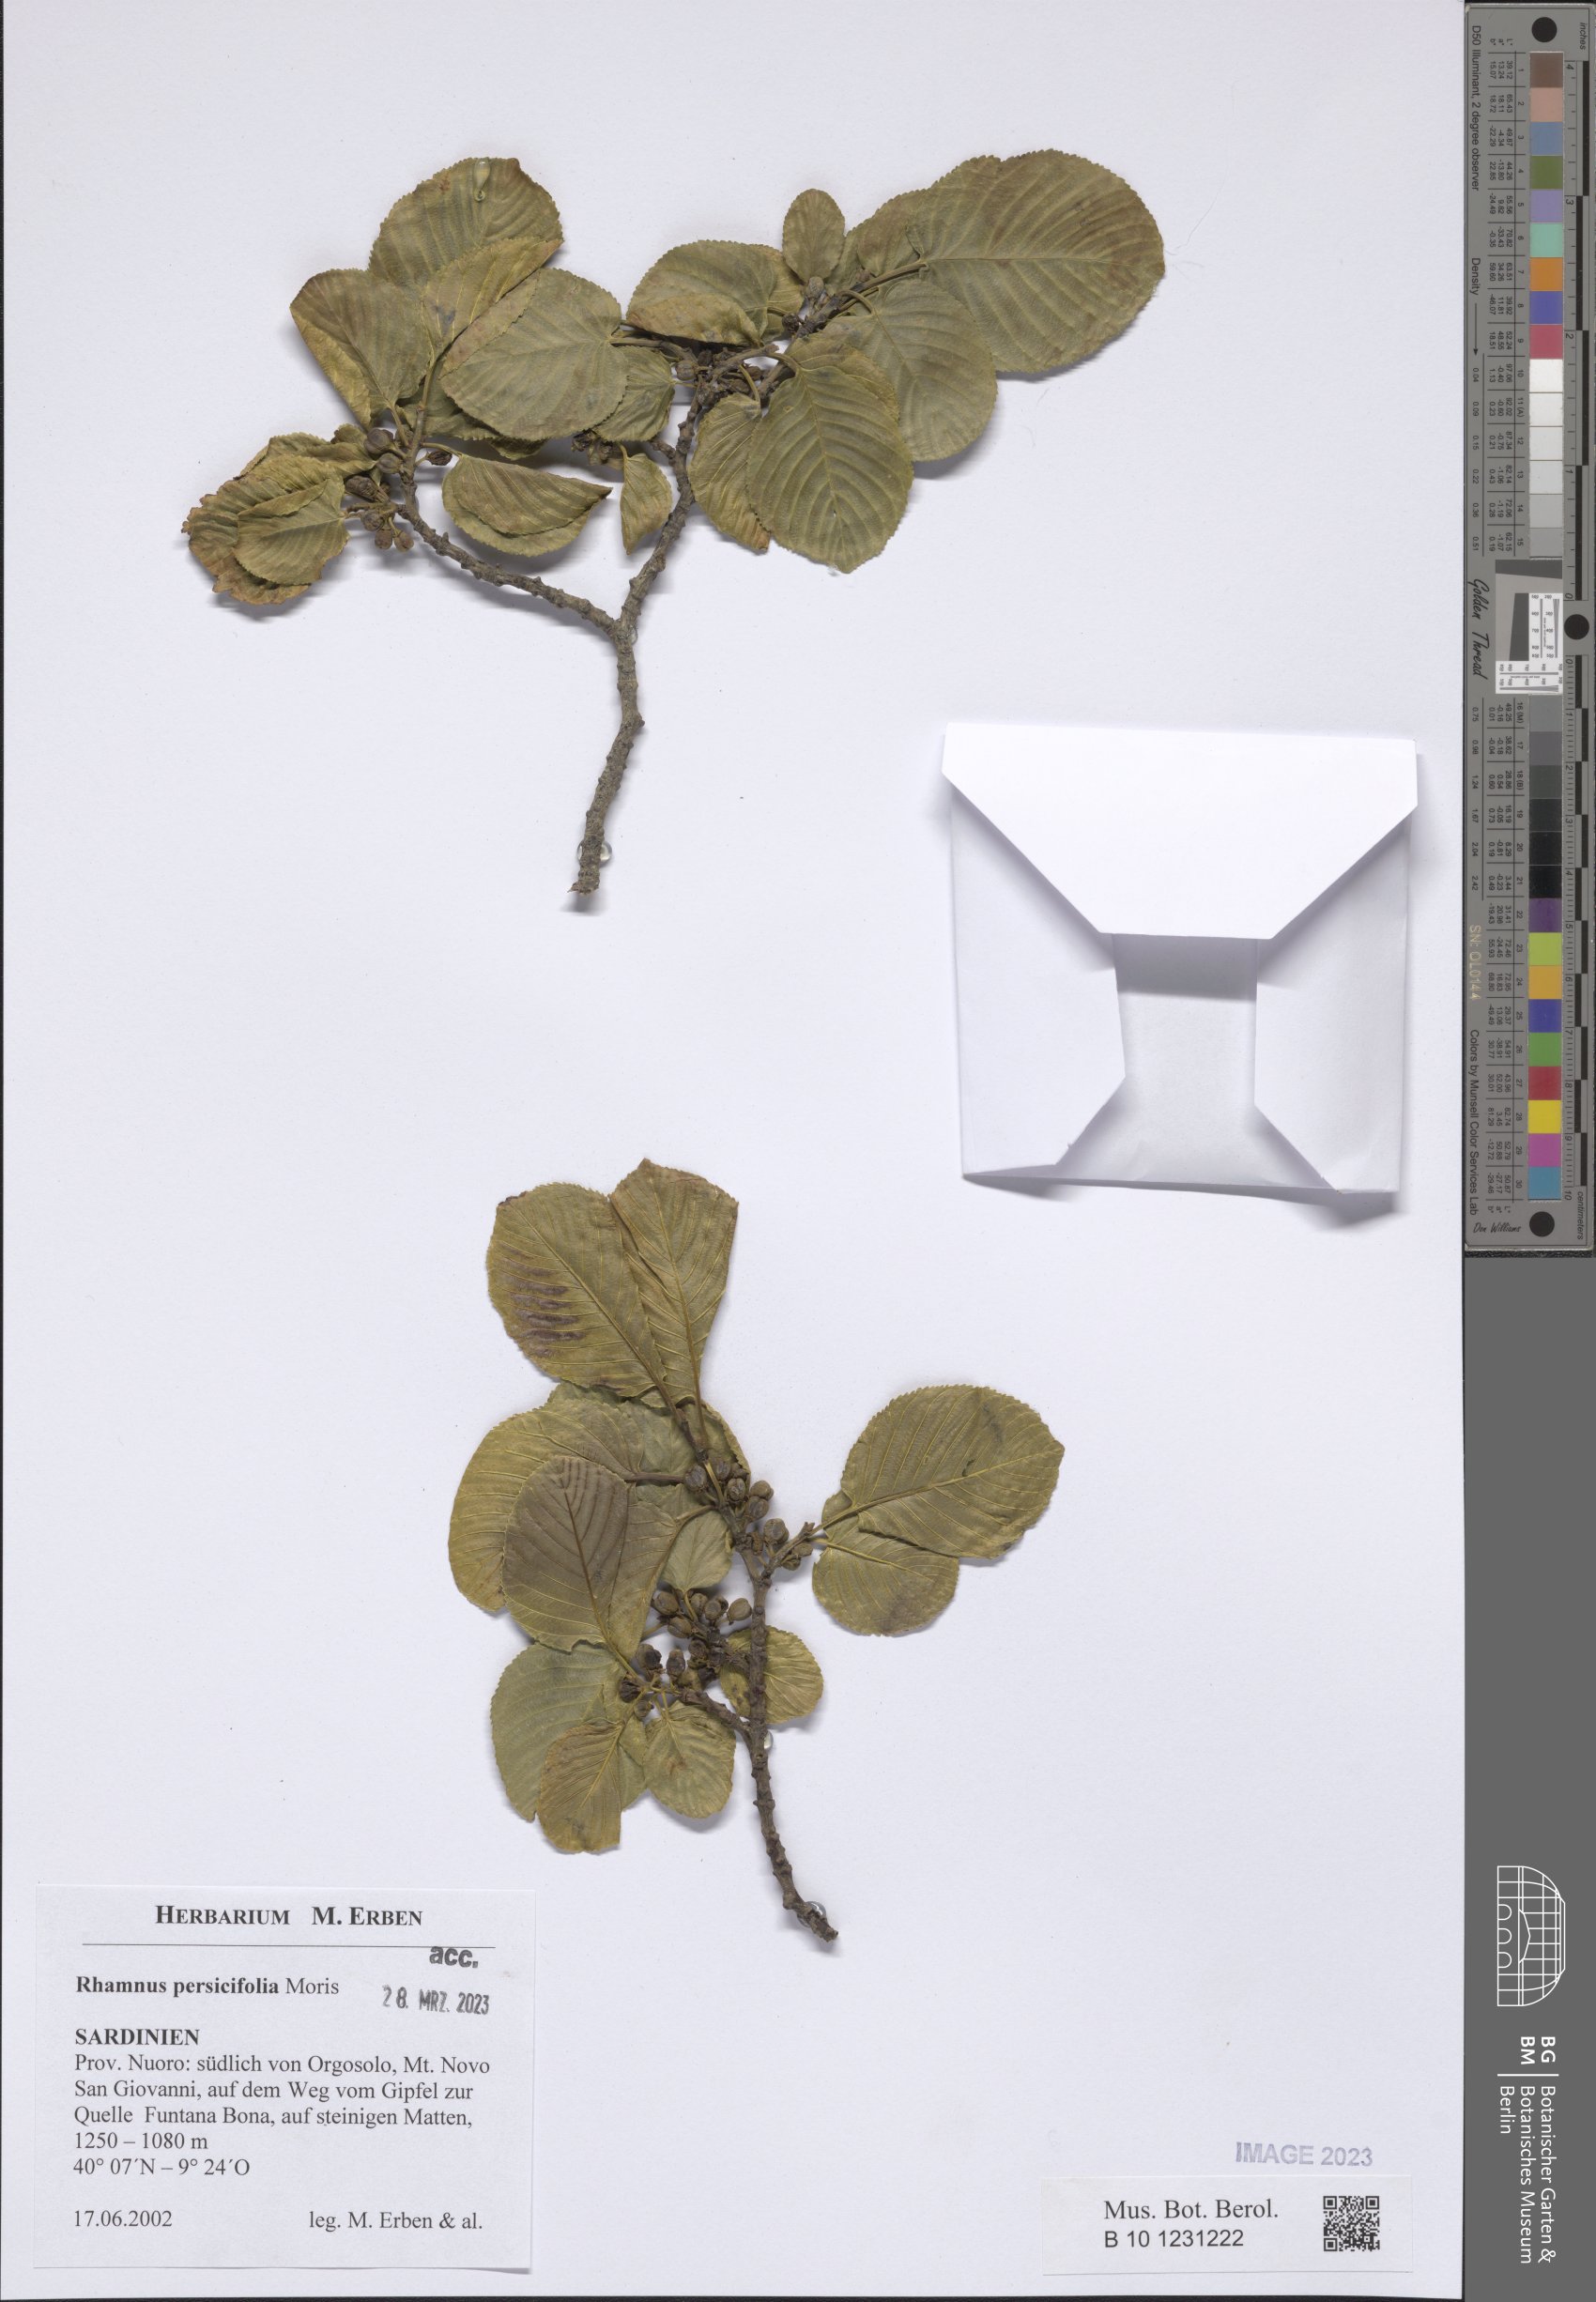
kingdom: Plantae
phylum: Tracheophyta
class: Magnoliopsida
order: Rosales
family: Rhamnaceae
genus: Rhamnus
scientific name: Rhamnus persicifolia
